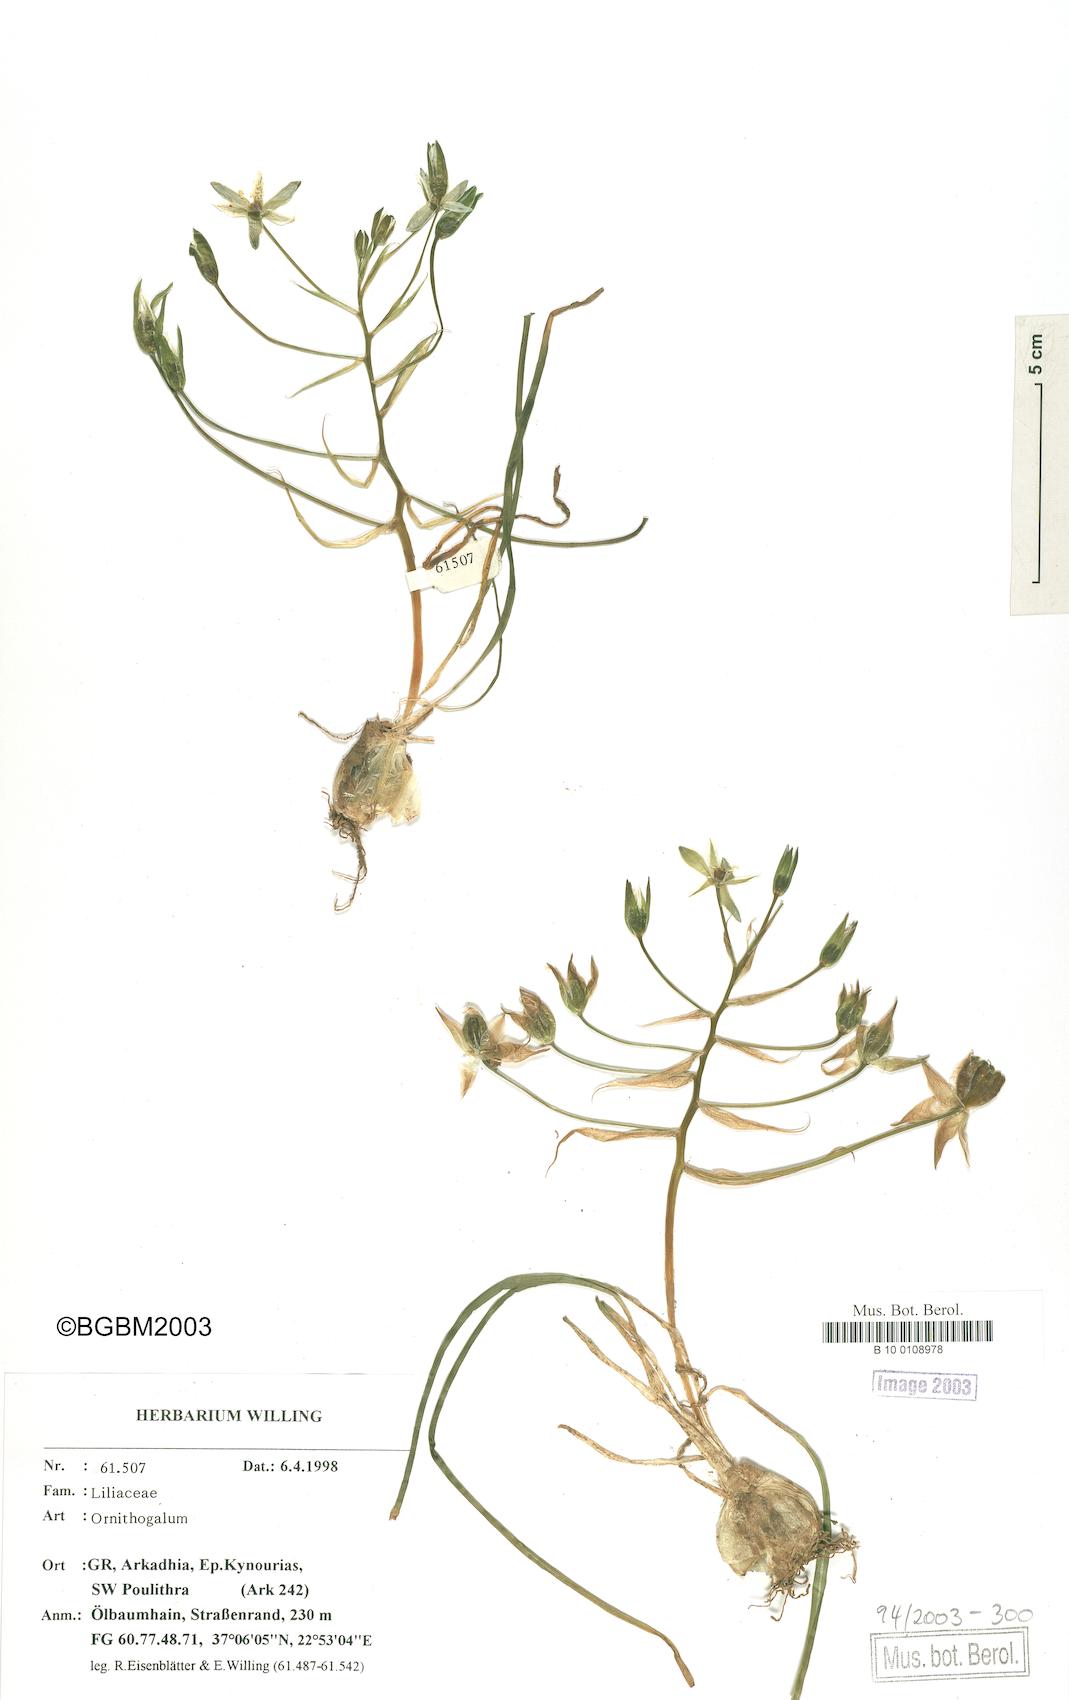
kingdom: Plantae
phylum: Tracheophyta
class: Liliopsida
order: Asparagales
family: Asparagaceae
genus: Ornithogalum
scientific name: Ornithogalum
